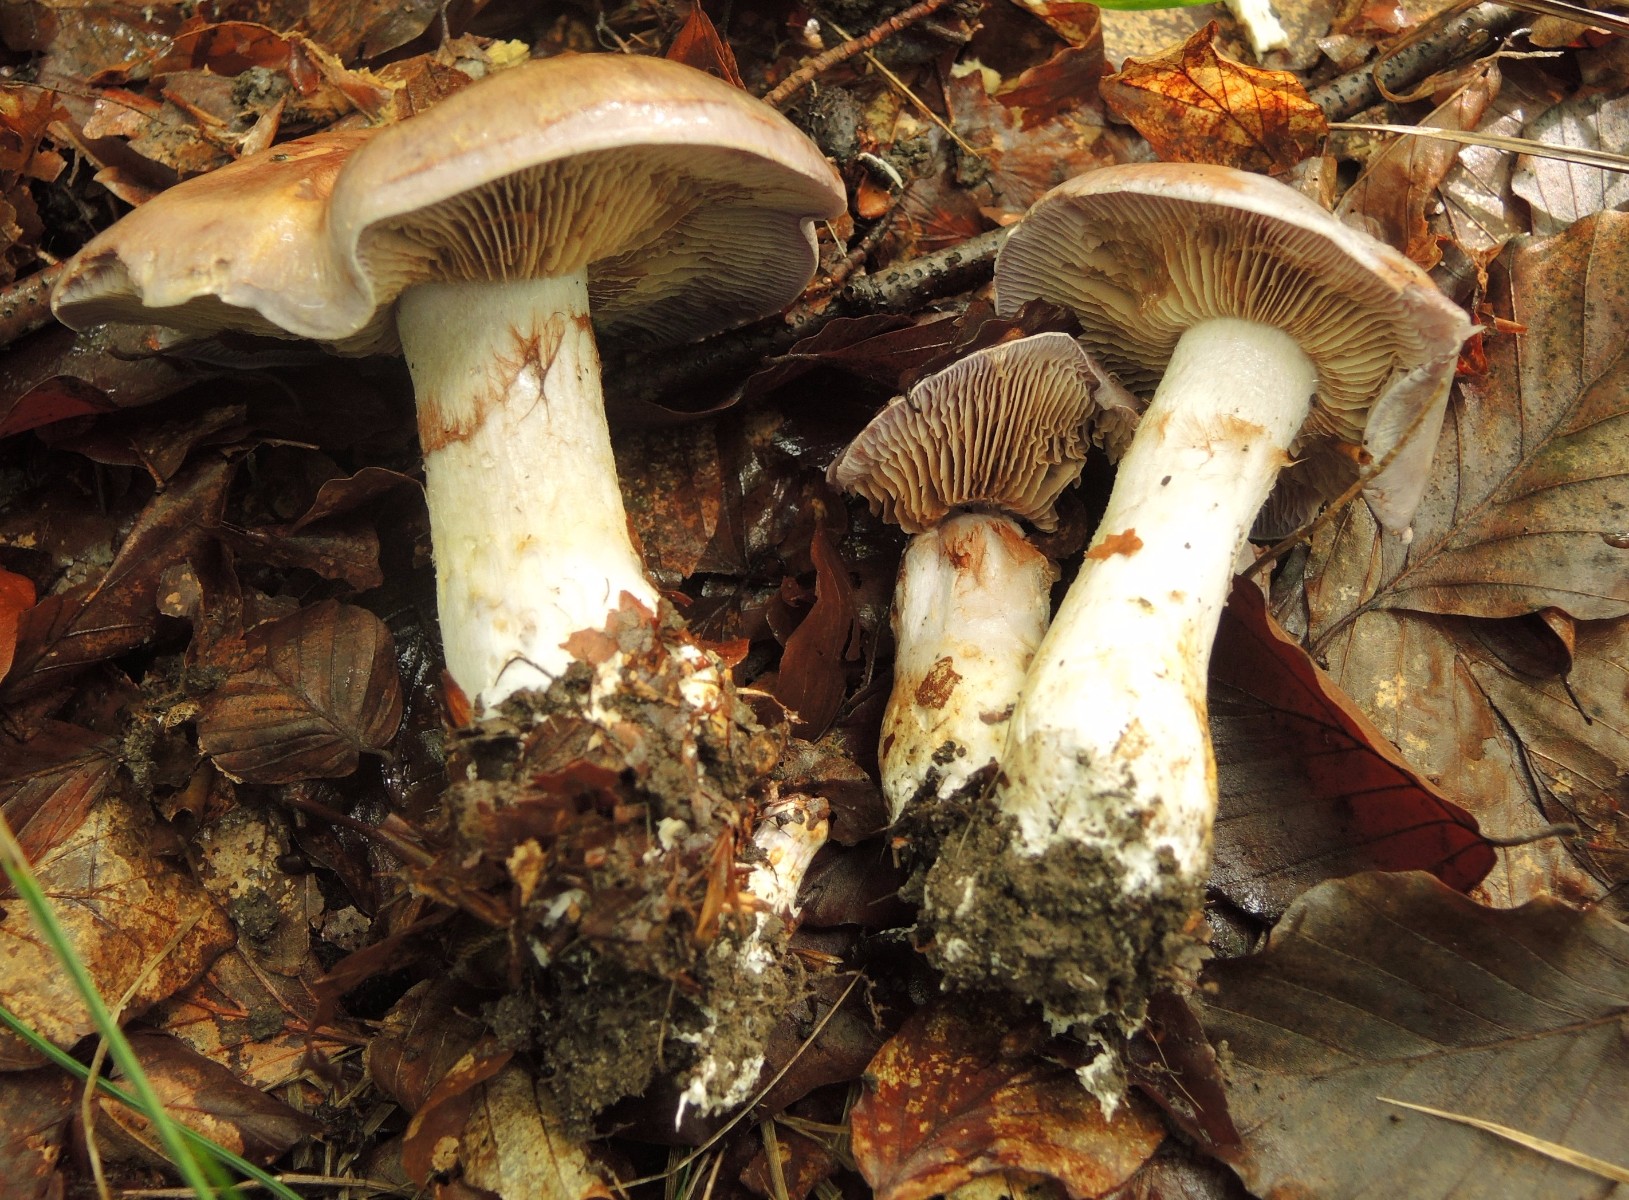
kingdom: Fungi
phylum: Basidiomycota
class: Agaricomycetes
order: Agaricales
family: Cortinariaceae
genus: Cortinarius
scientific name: Cortinarius largus
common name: violetrandet slørhat
